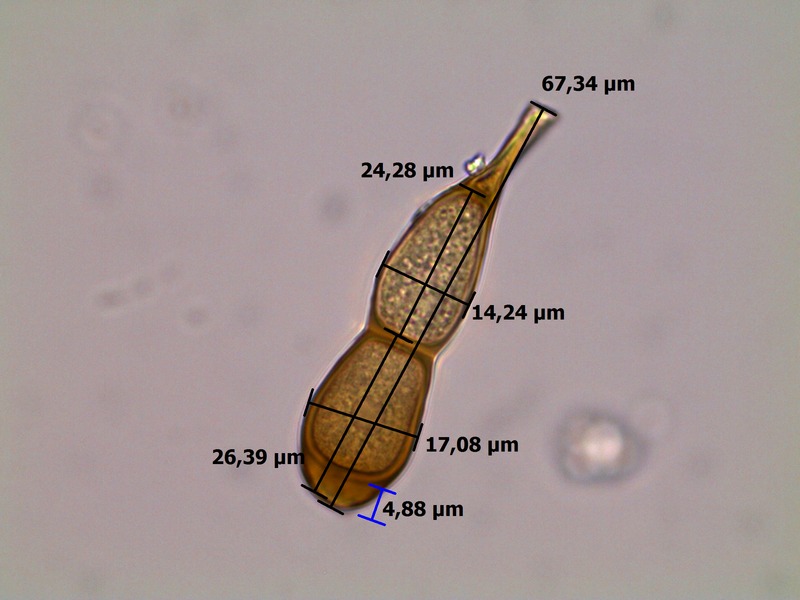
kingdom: Fungi
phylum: Basidiomycota
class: Pucciniomycetes
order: Pucciniales
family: Pucciniaceae
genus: Puccinia
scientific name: Puccinia petasites-pendulae
